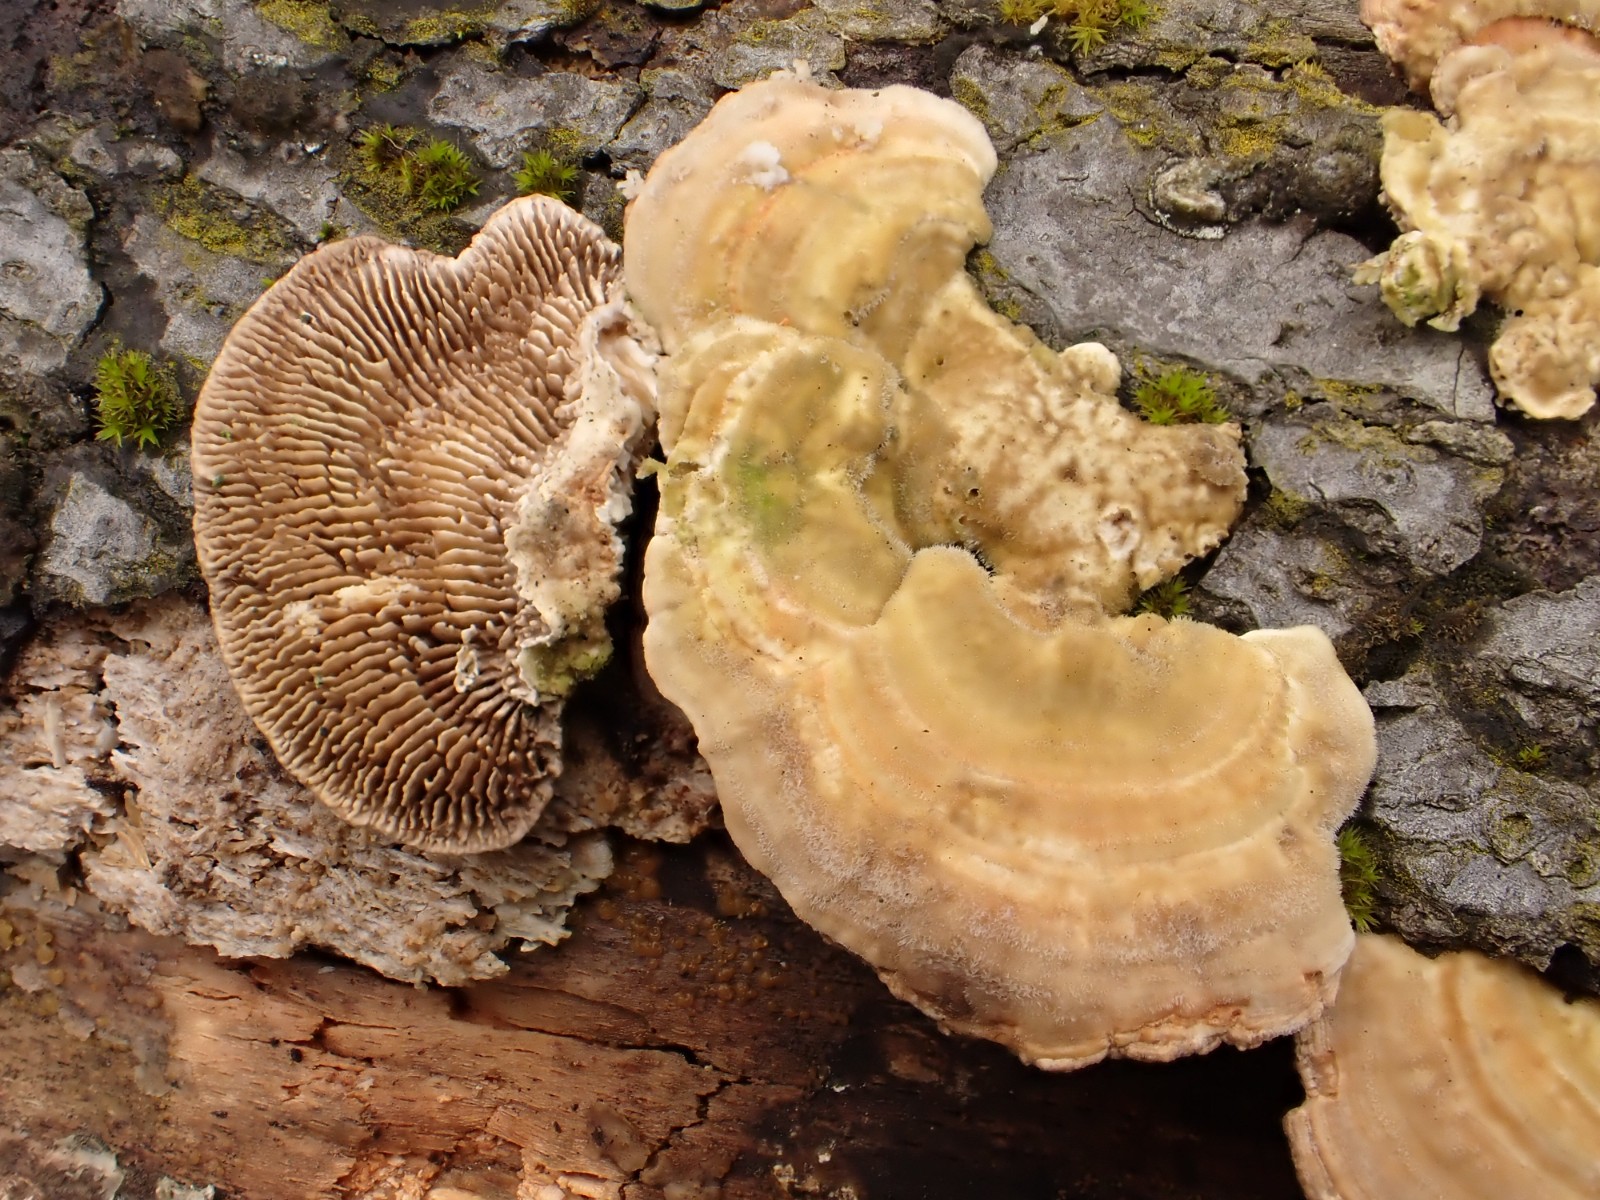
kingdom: Fungi
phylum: Basidiomycota
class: Agaricomycetes
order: Polyporales
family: Polyporaceae
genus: Lenzites
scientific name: Lenzites betulinus
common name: birke-læderporesvamp
